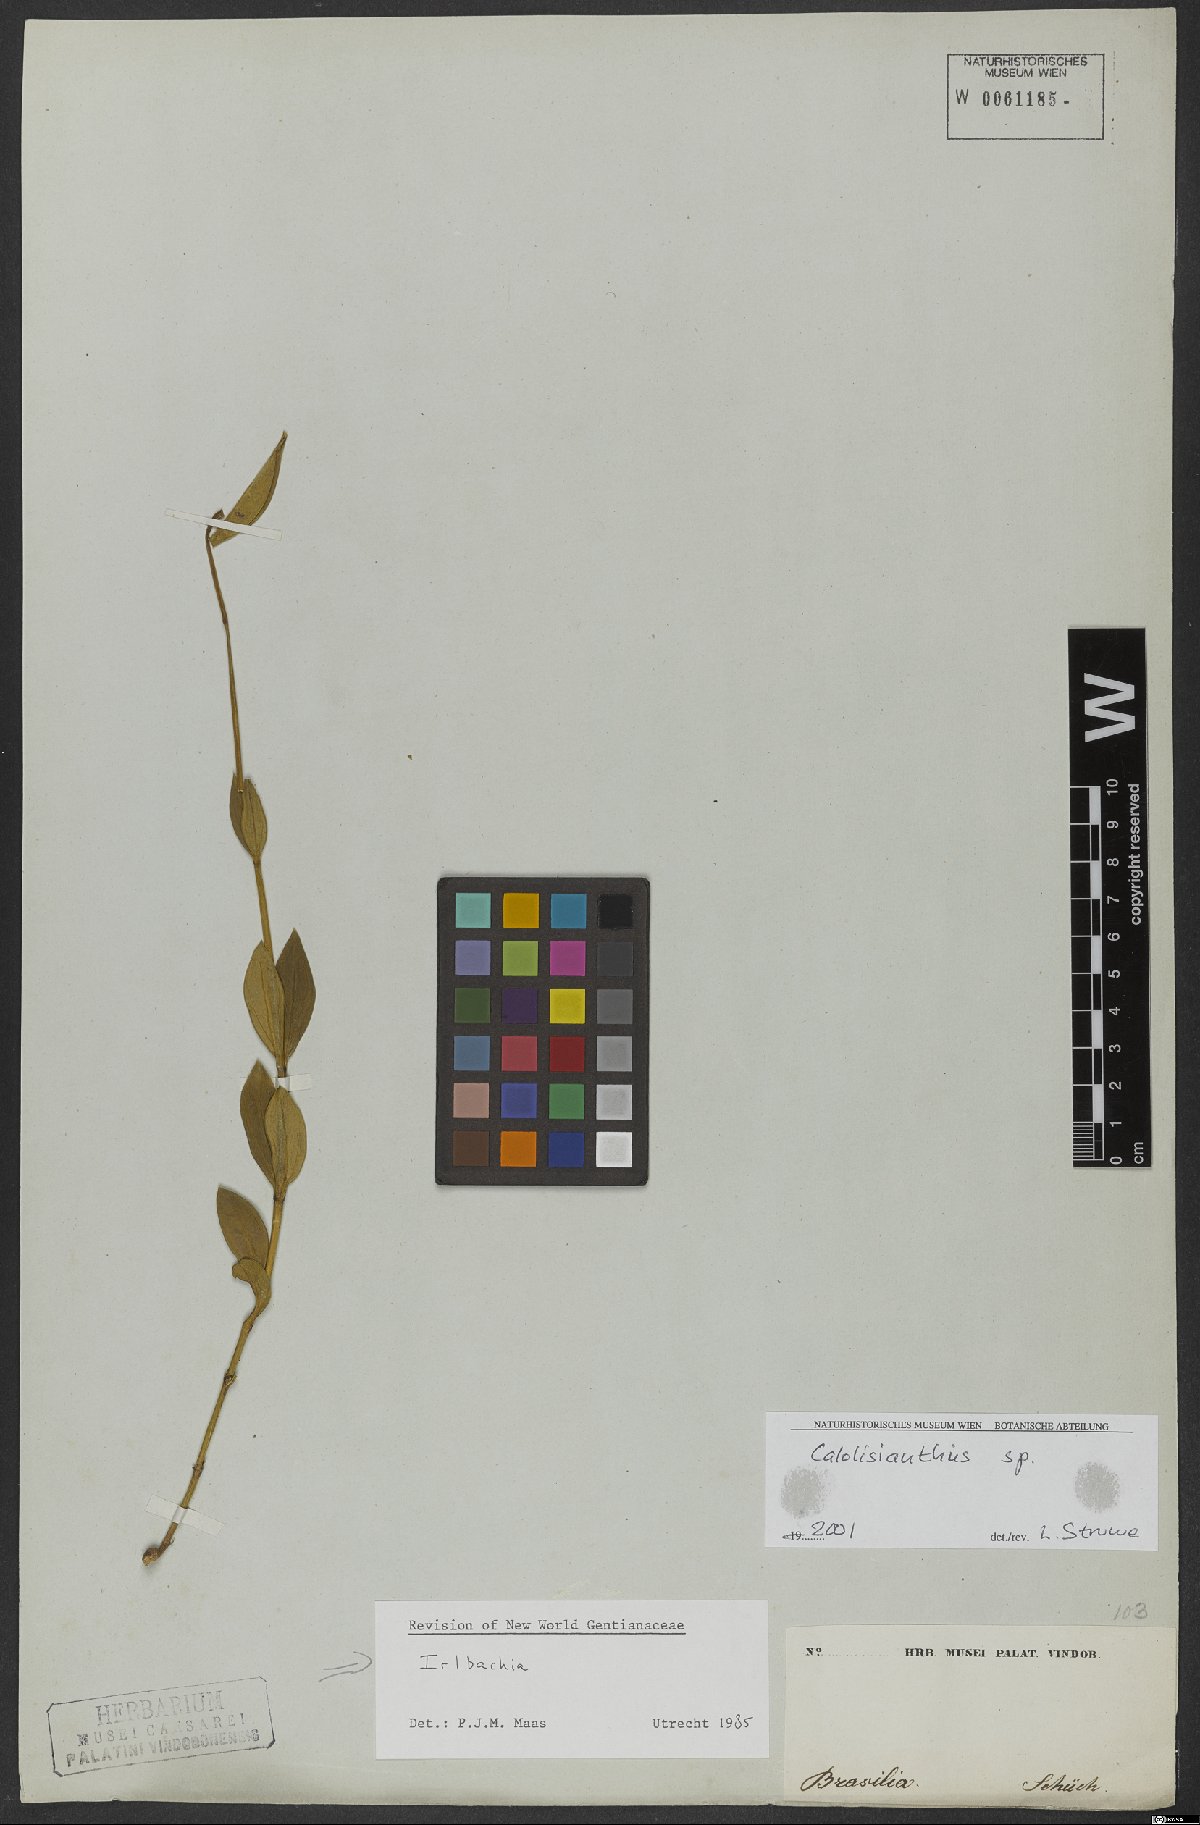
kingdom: Plantae
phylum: Tracheophyta
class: Magnoliopsida
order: Gentianales
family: Gentianaceae
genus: Irlbachia
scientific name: Irlbachia
